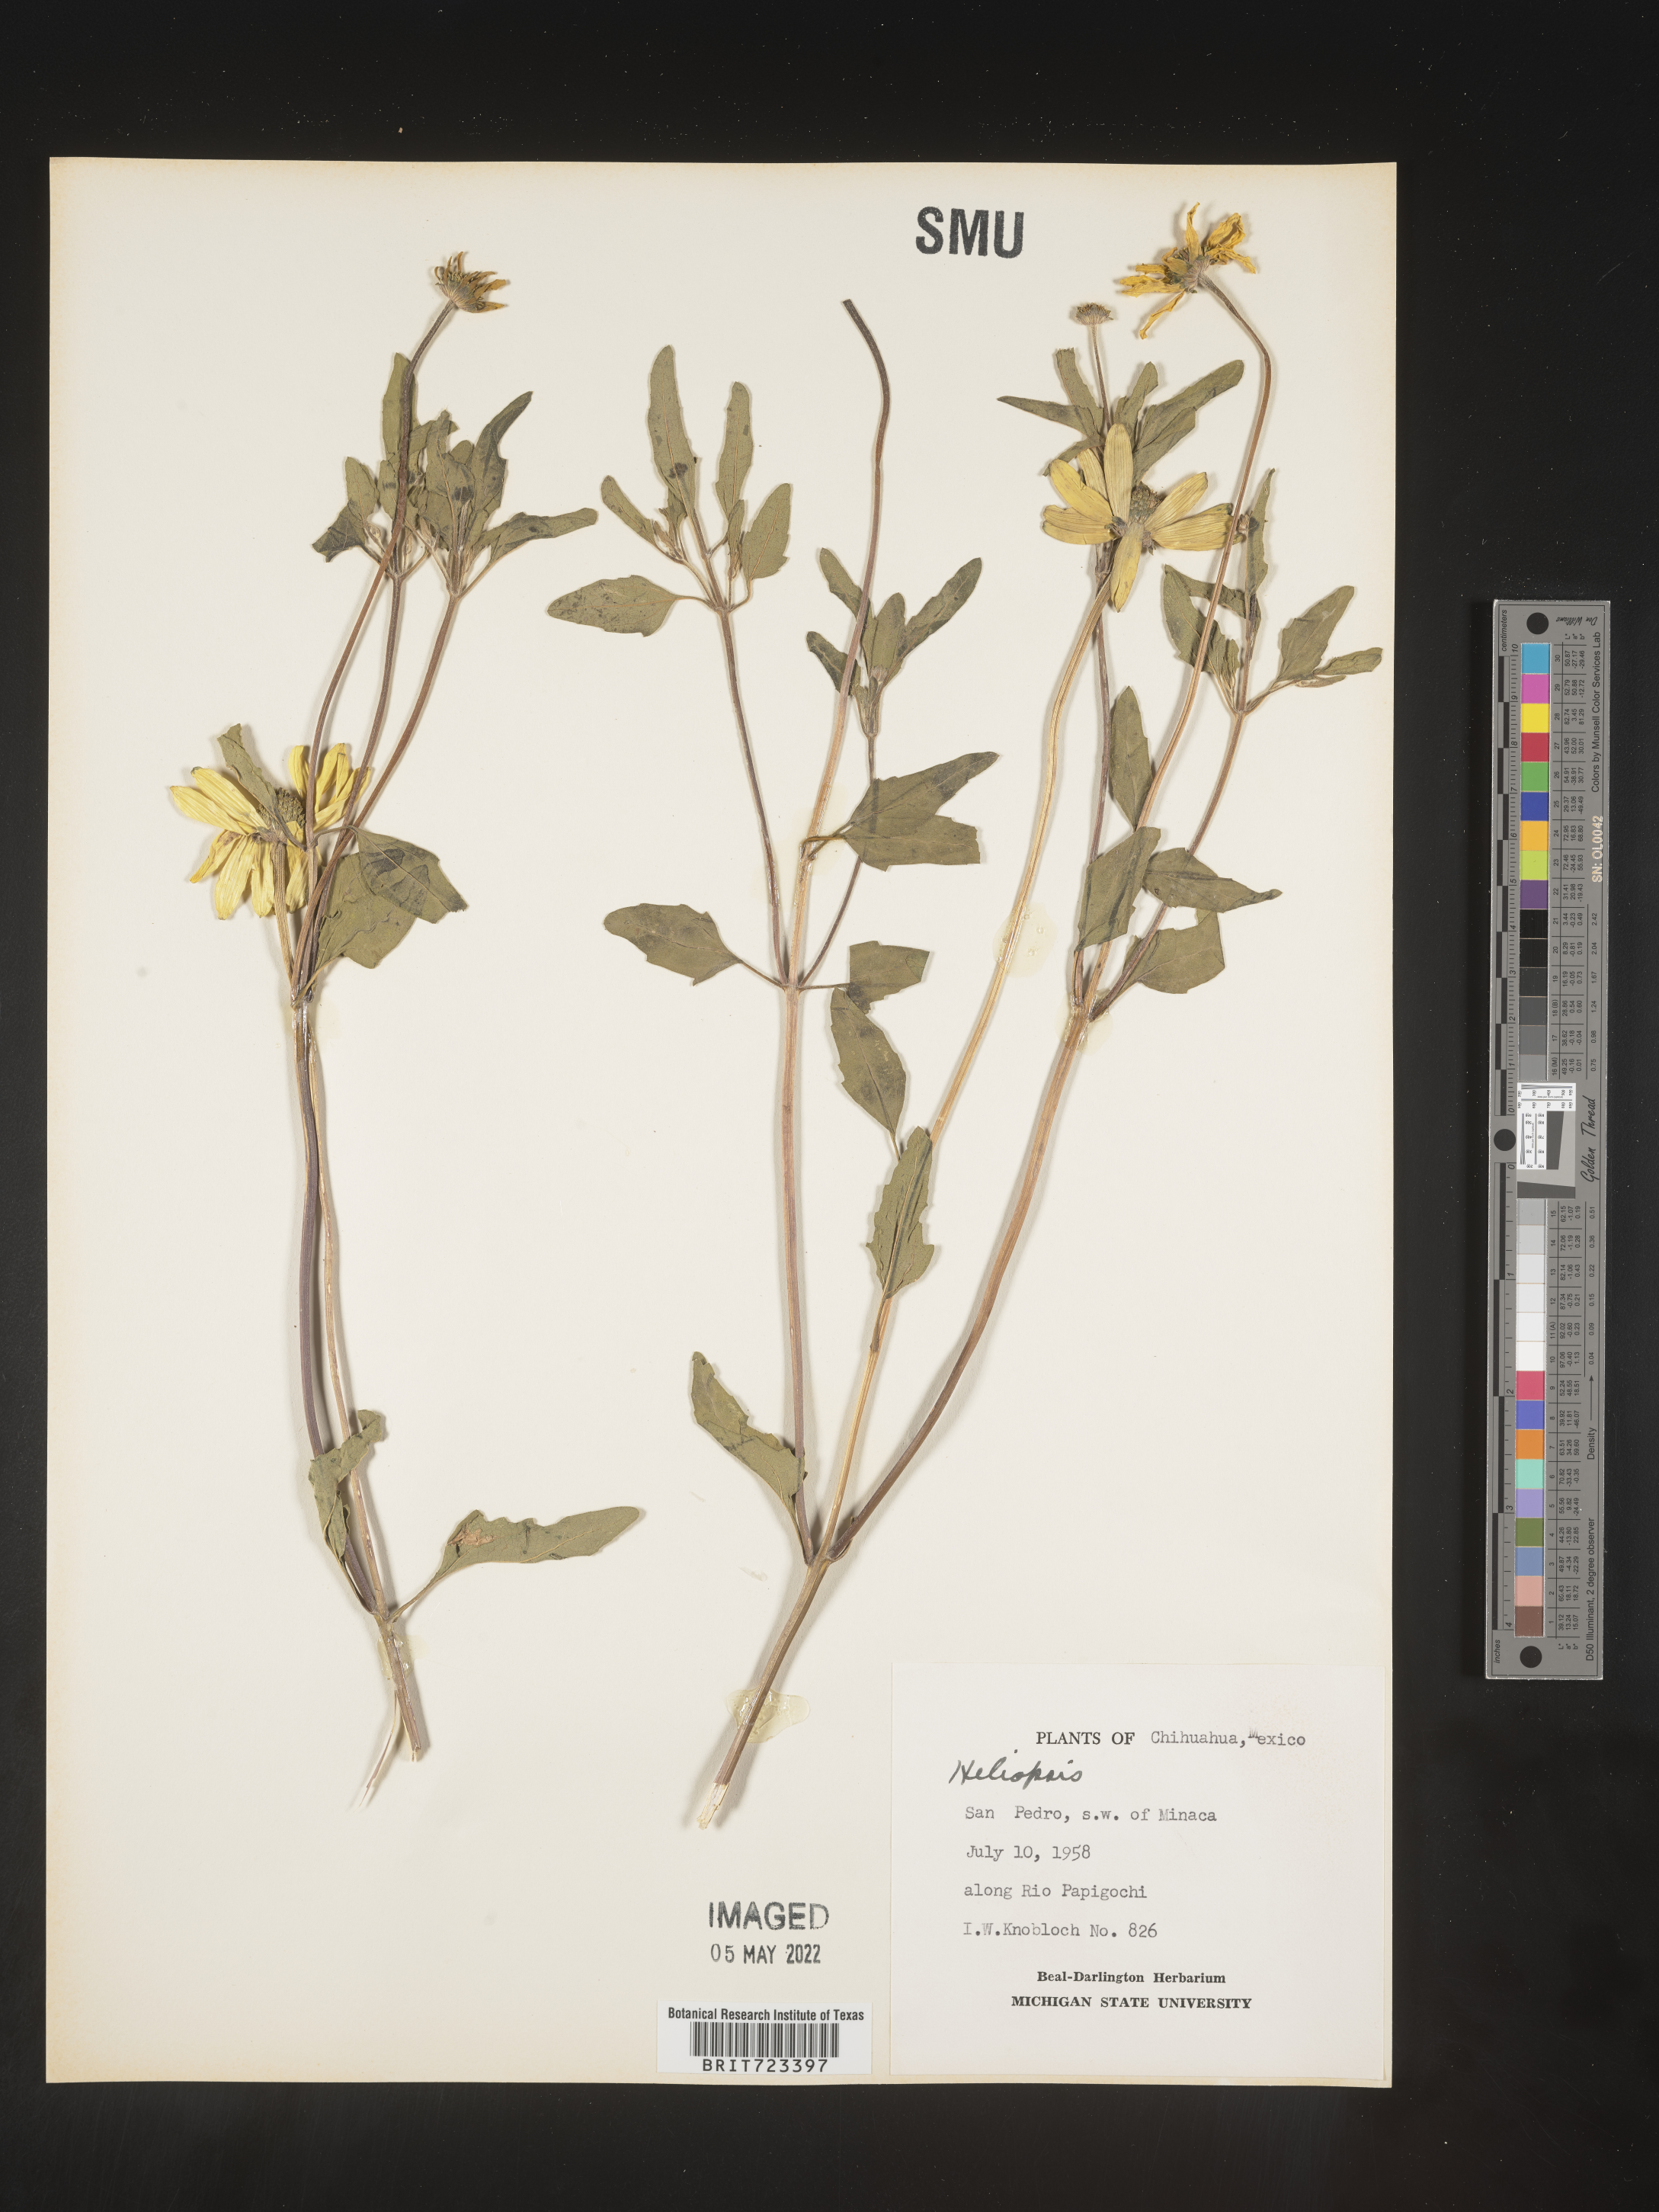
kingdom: Plantae
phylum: Tracheophyta
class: Magnoliopsida
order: Asterales
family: Asteraceae
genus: Heliopsis
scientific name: Heliopsis
